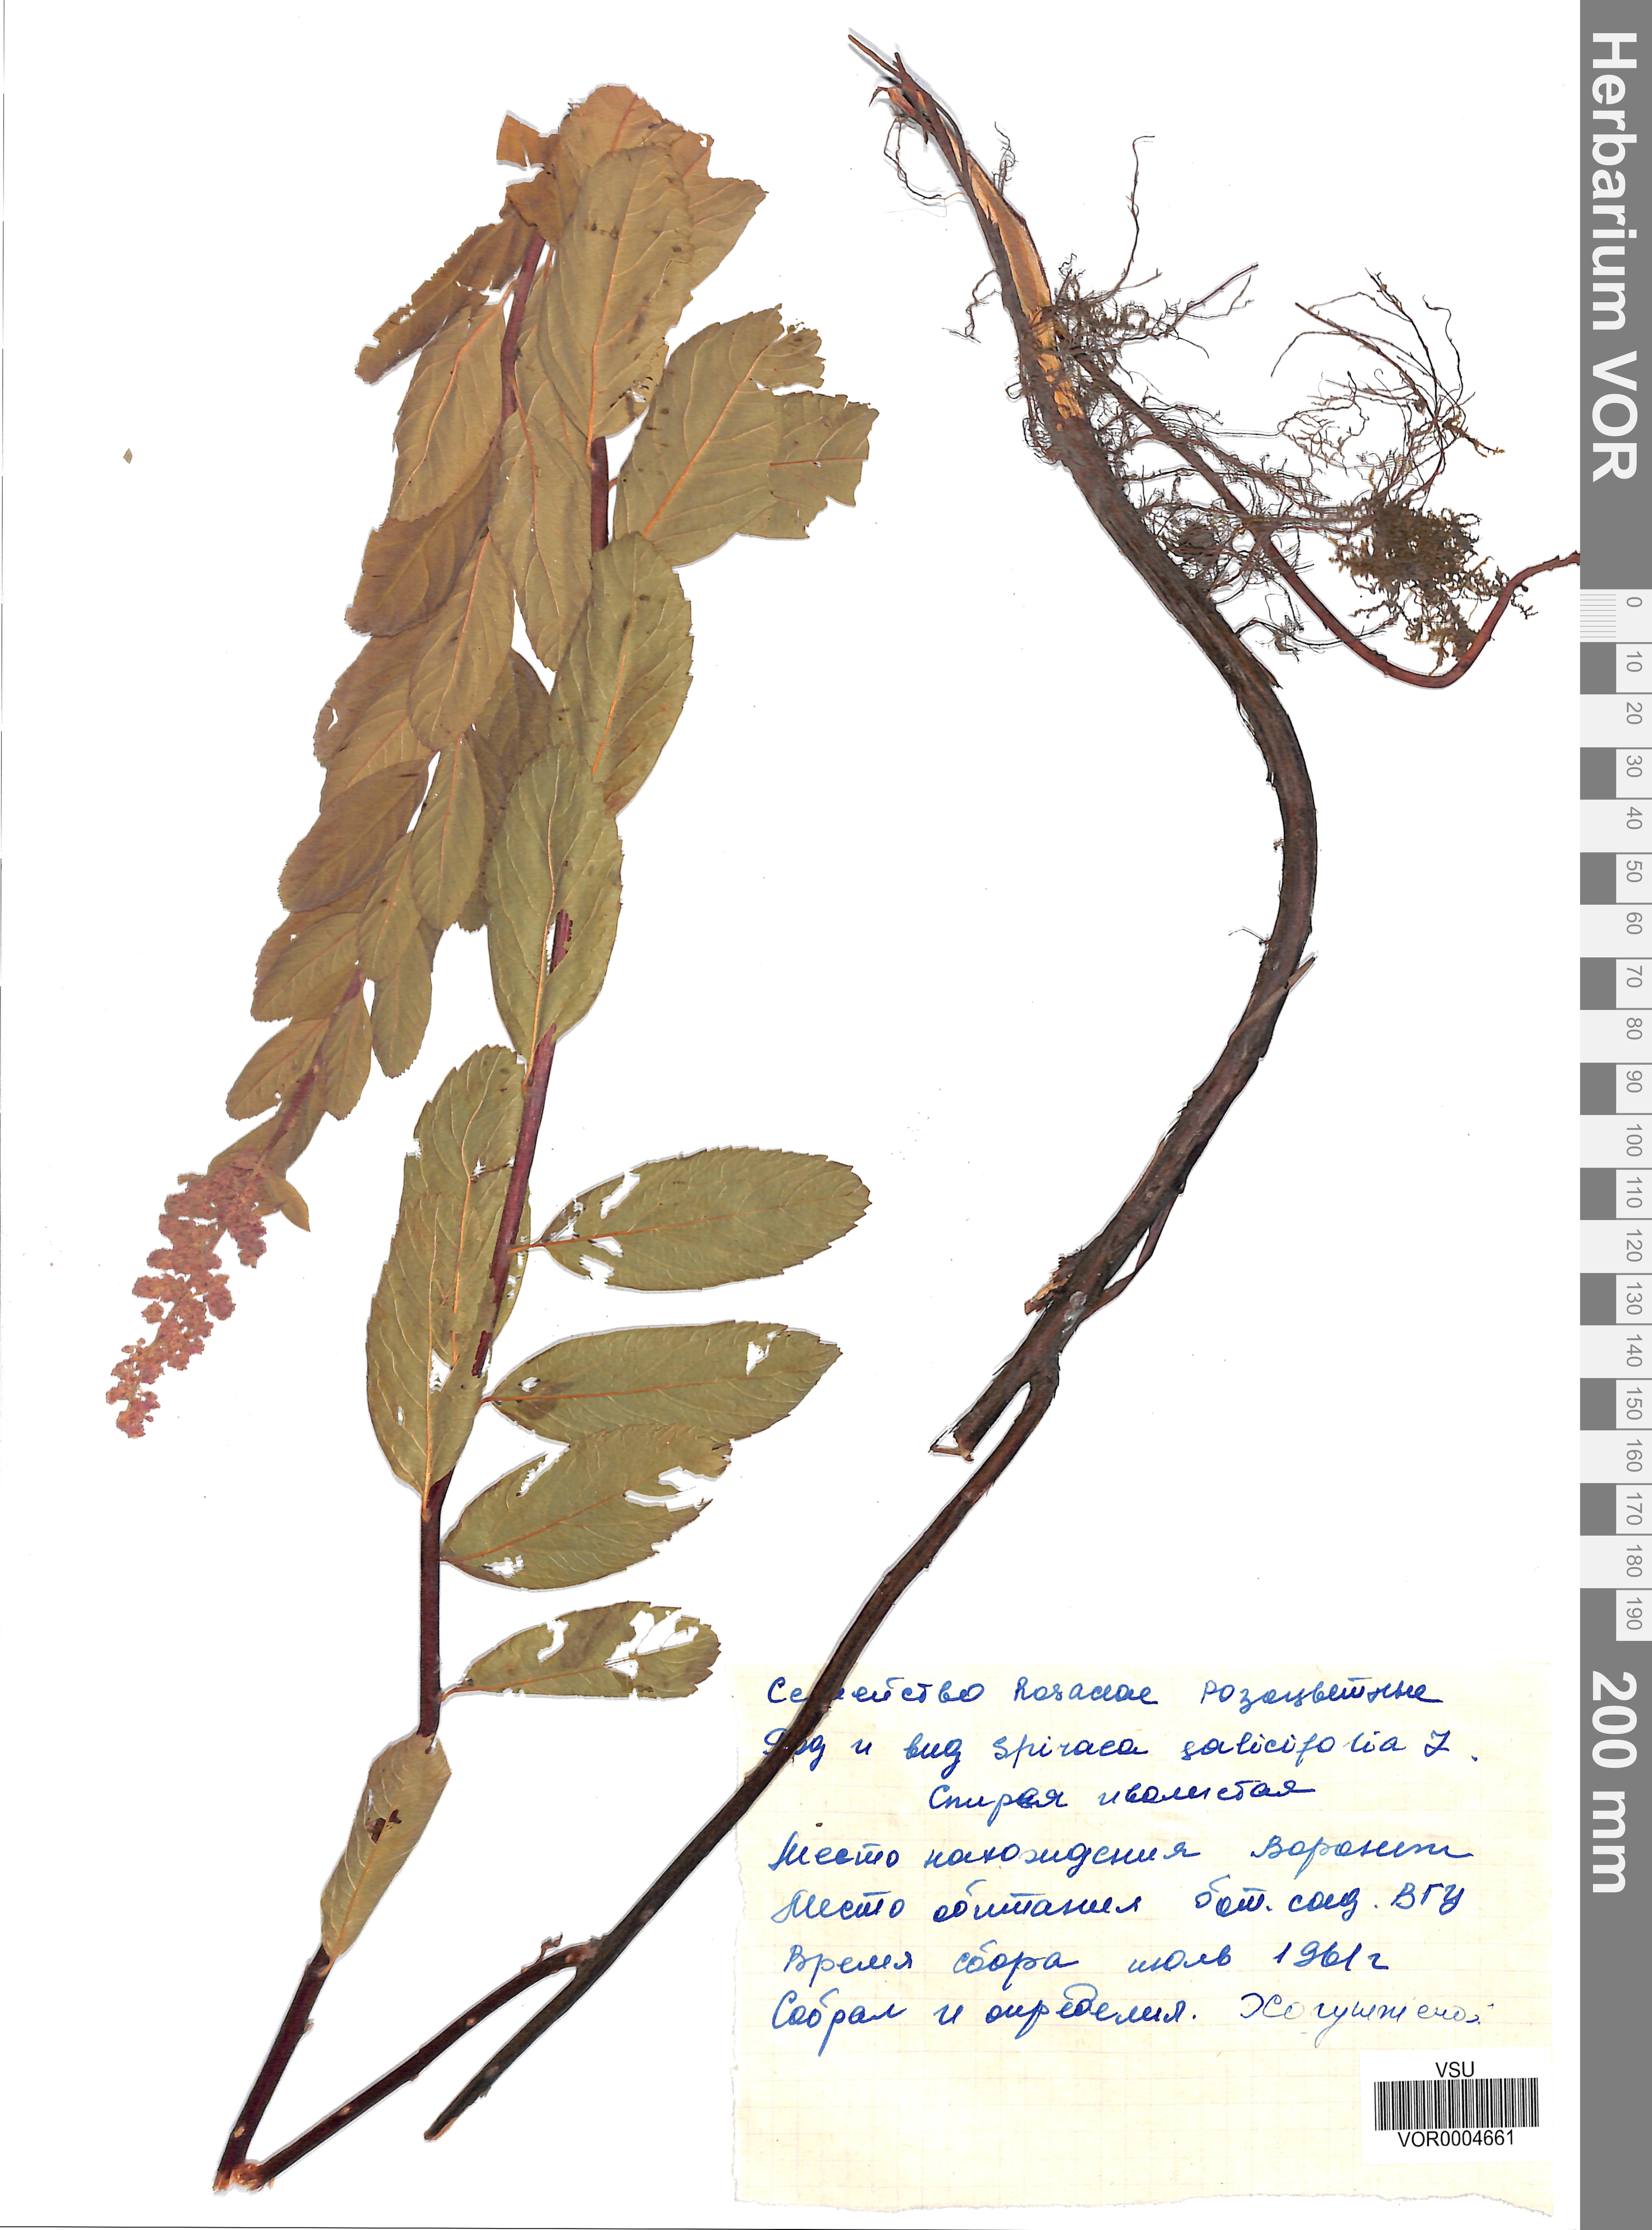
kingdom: Plantae
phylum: Tracheophyta
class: Magnoliopsida
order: Rosales
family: Rosaceae
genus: Spiraea
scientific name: Spiraea salicifolia
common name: Bridewort
